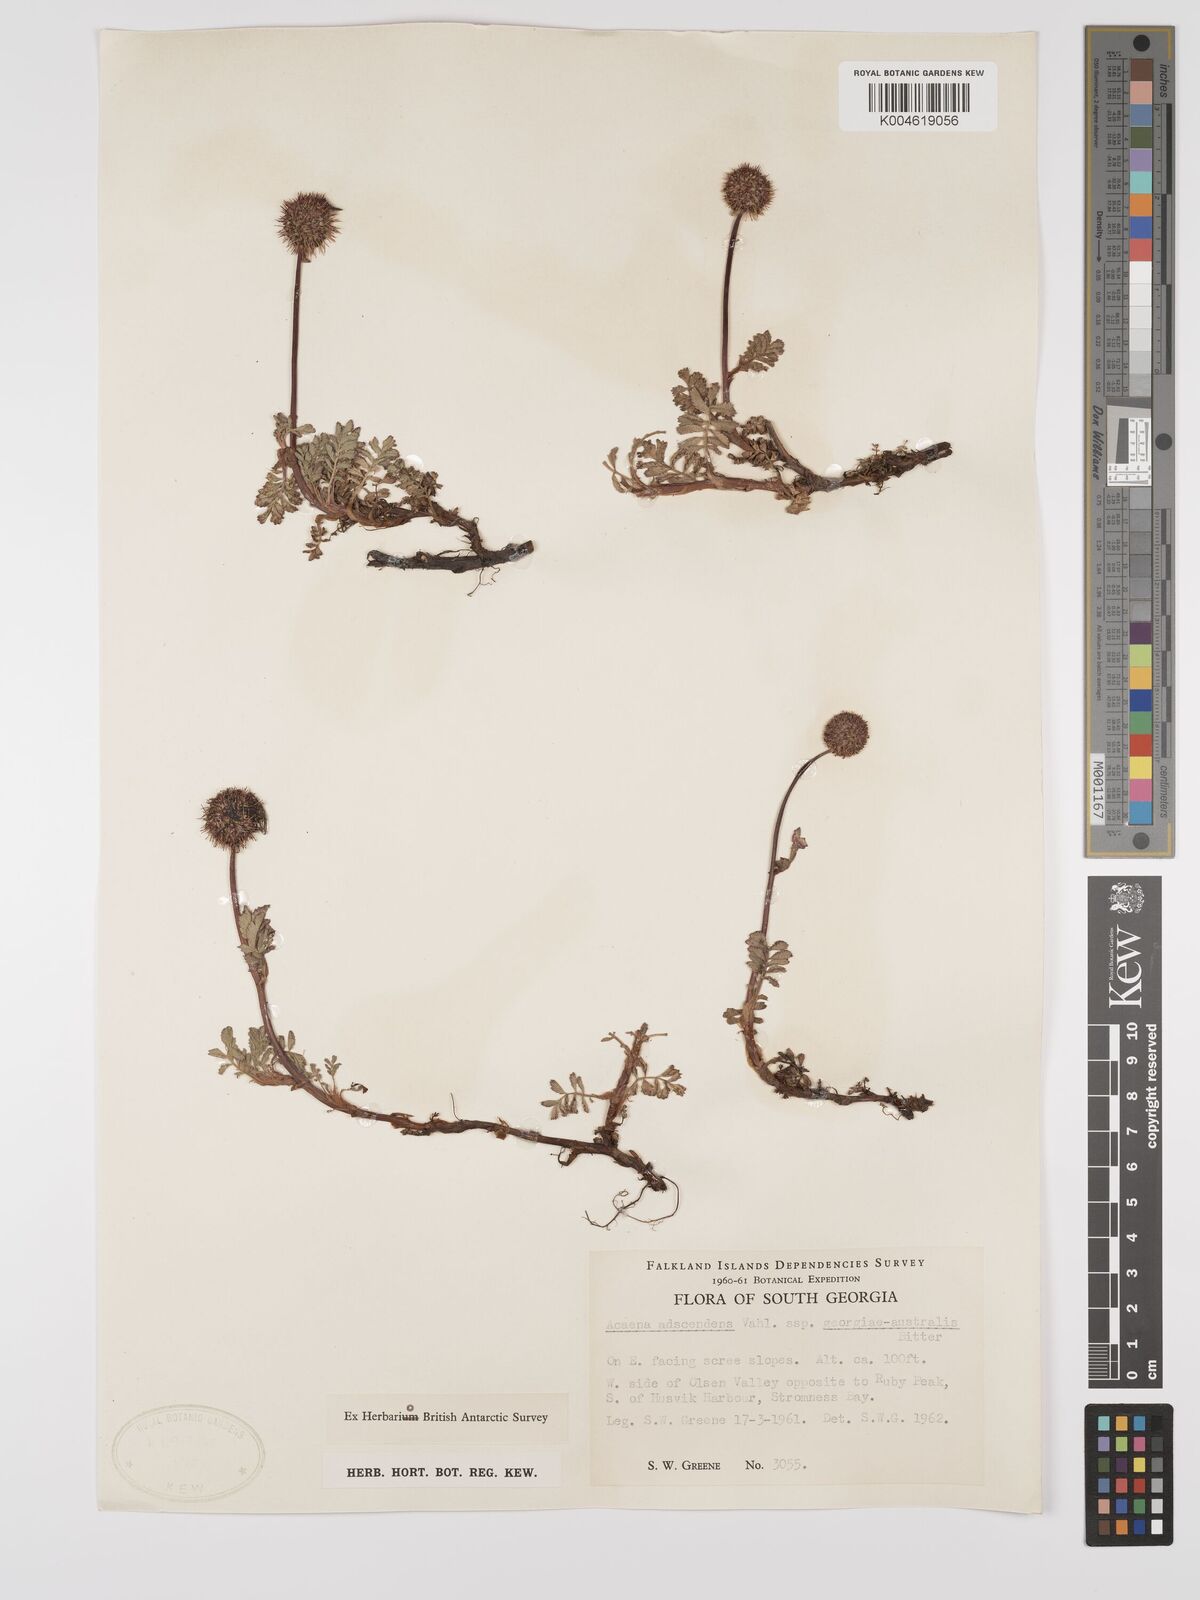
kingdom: Plantae
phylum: Tracheophyta
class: Magnoliopsida
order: Rosales
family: Rosaceae
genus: Acaena
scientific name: Acaena magellanica
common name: New zealand burr
